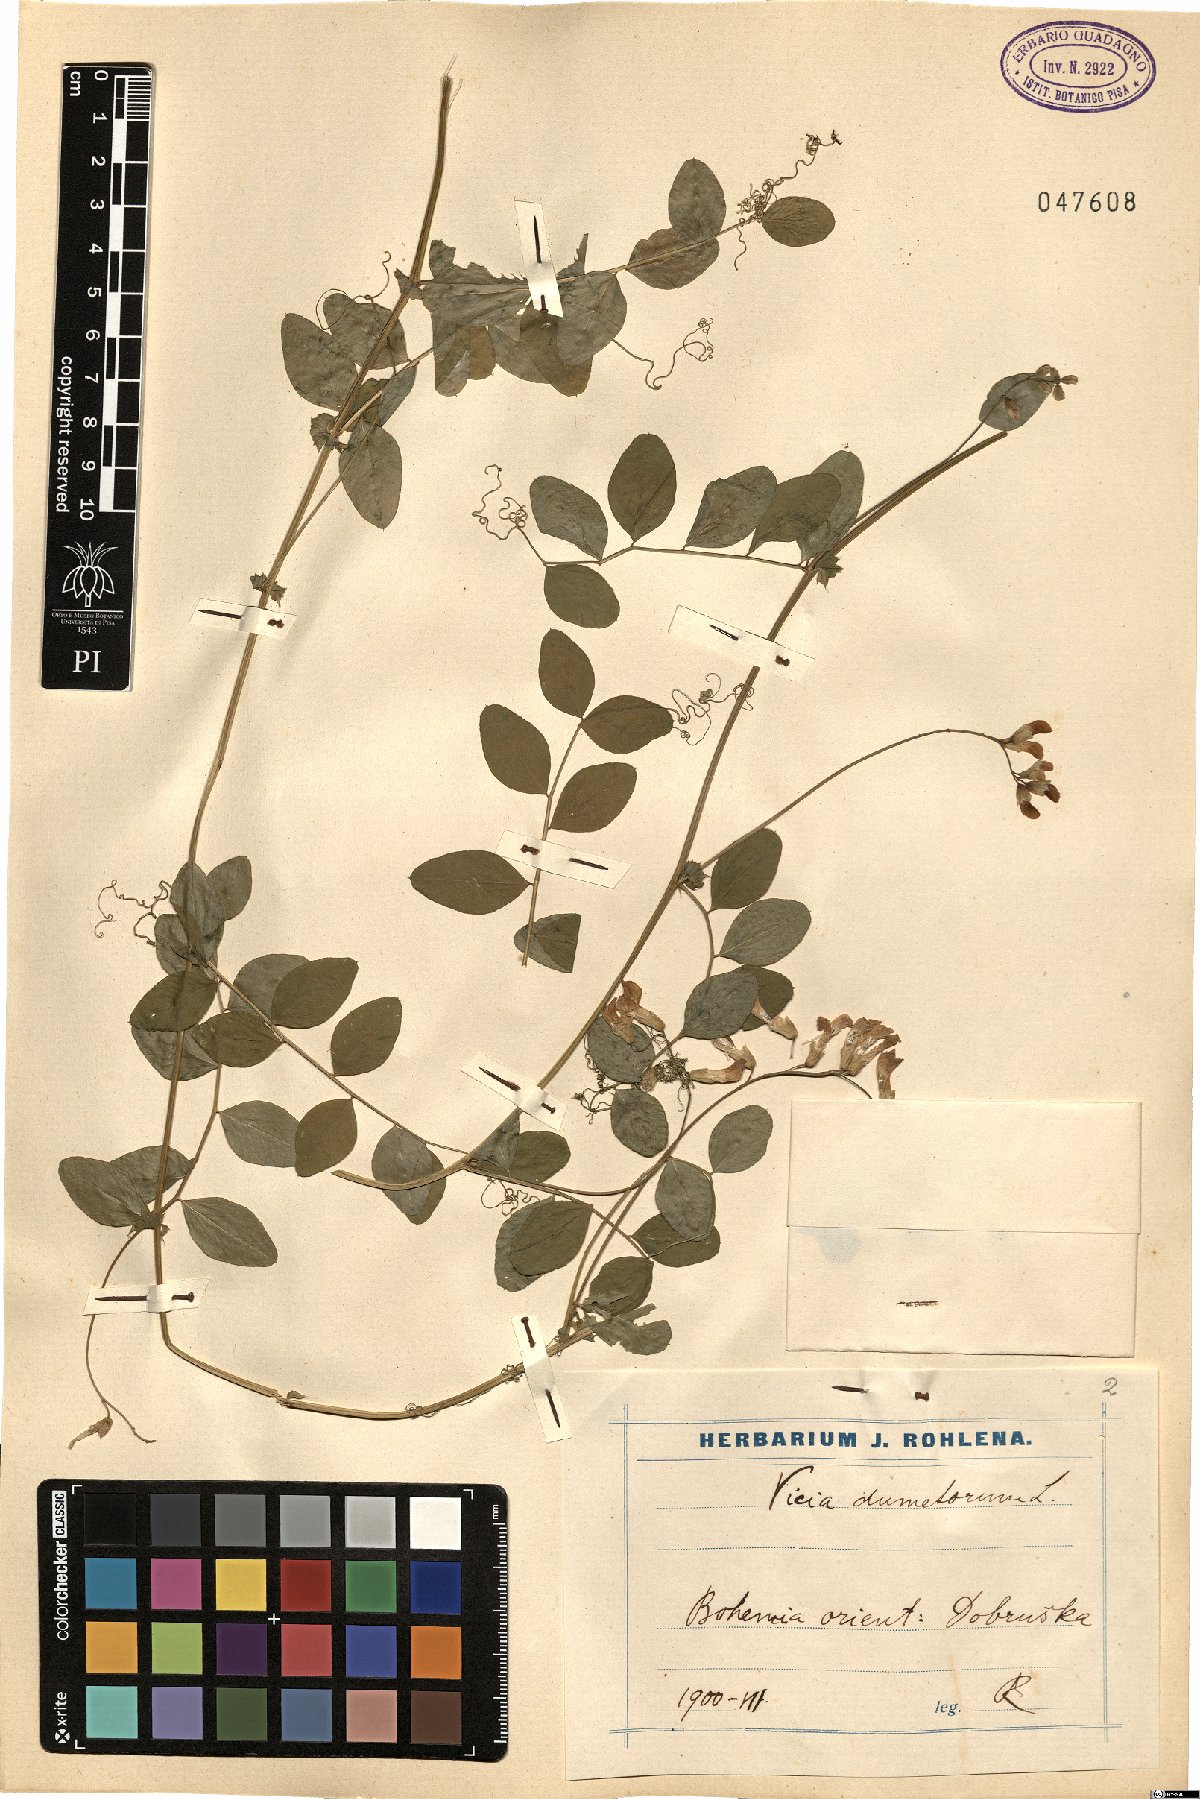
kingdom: Plantae
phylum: Tracheophyta
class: Magnoliopsida
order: Fabales
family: Fabaceae
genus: Vicia
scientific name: Vicia dumetorum
